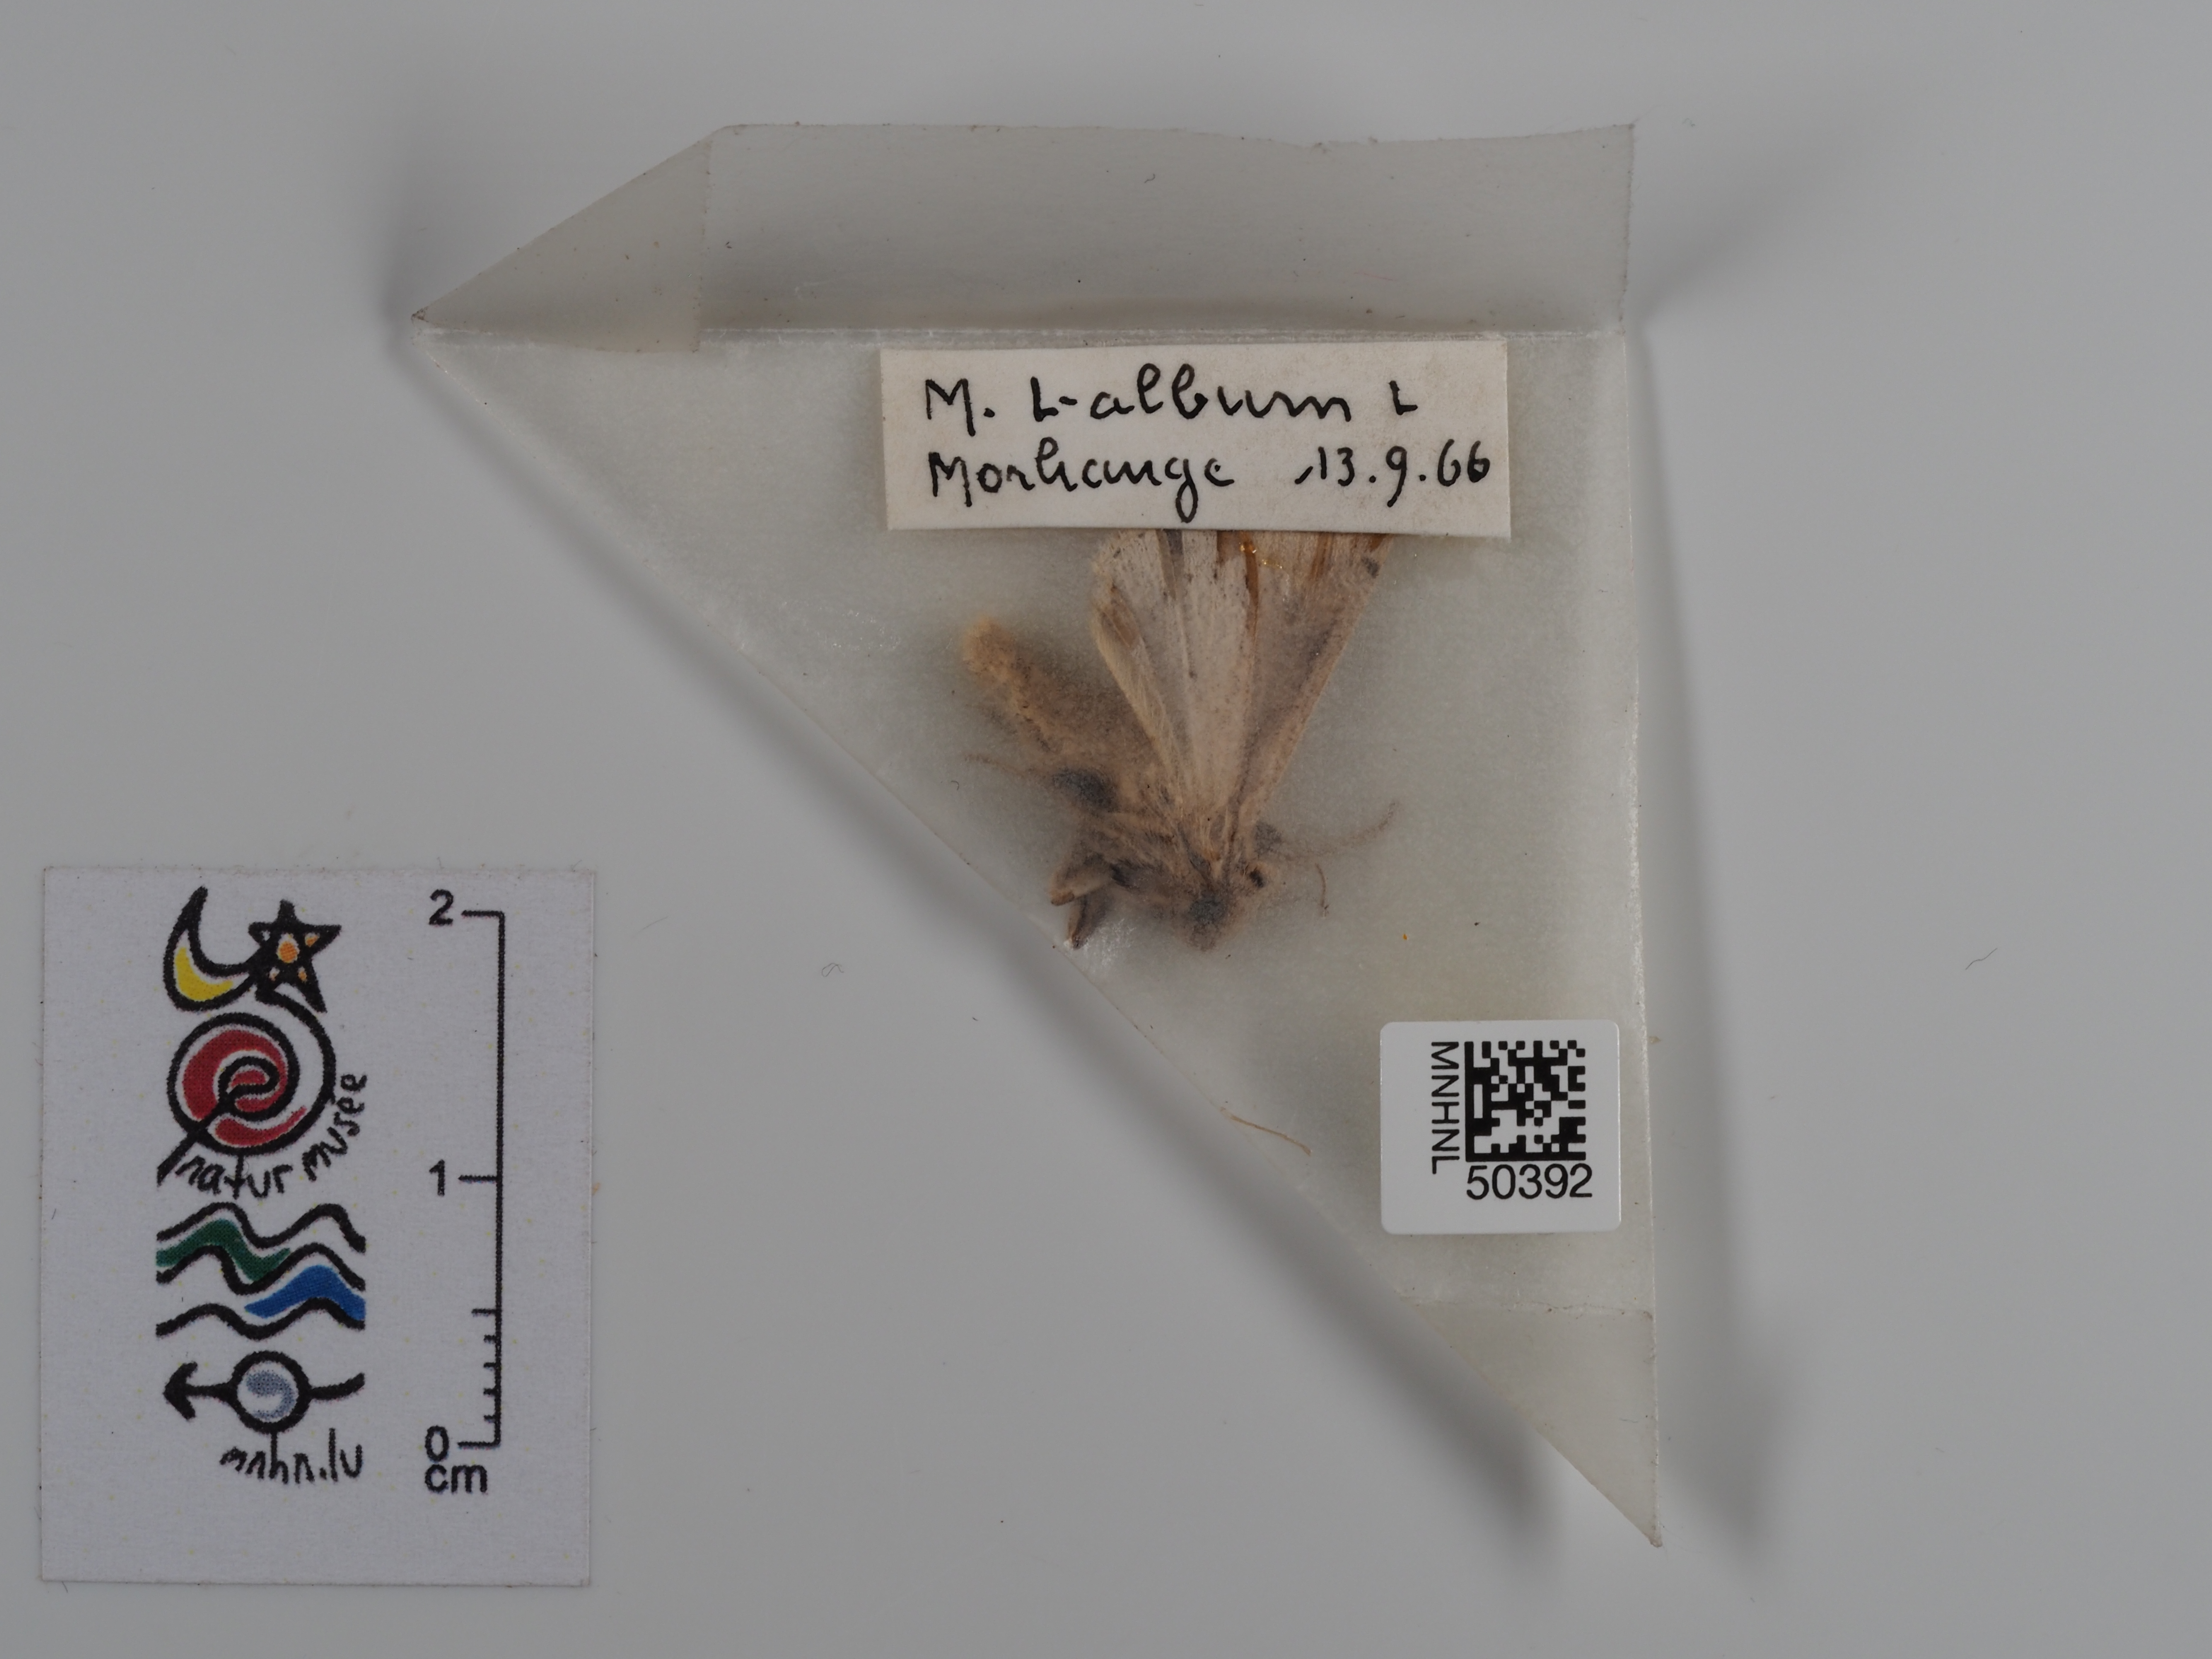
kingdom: Animalia
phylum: Arthropoda
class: Insecta
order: Lepidoptera
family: Noctuidae
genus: Mythimna
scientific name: Mythimna l-album
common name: L-album wainscot
